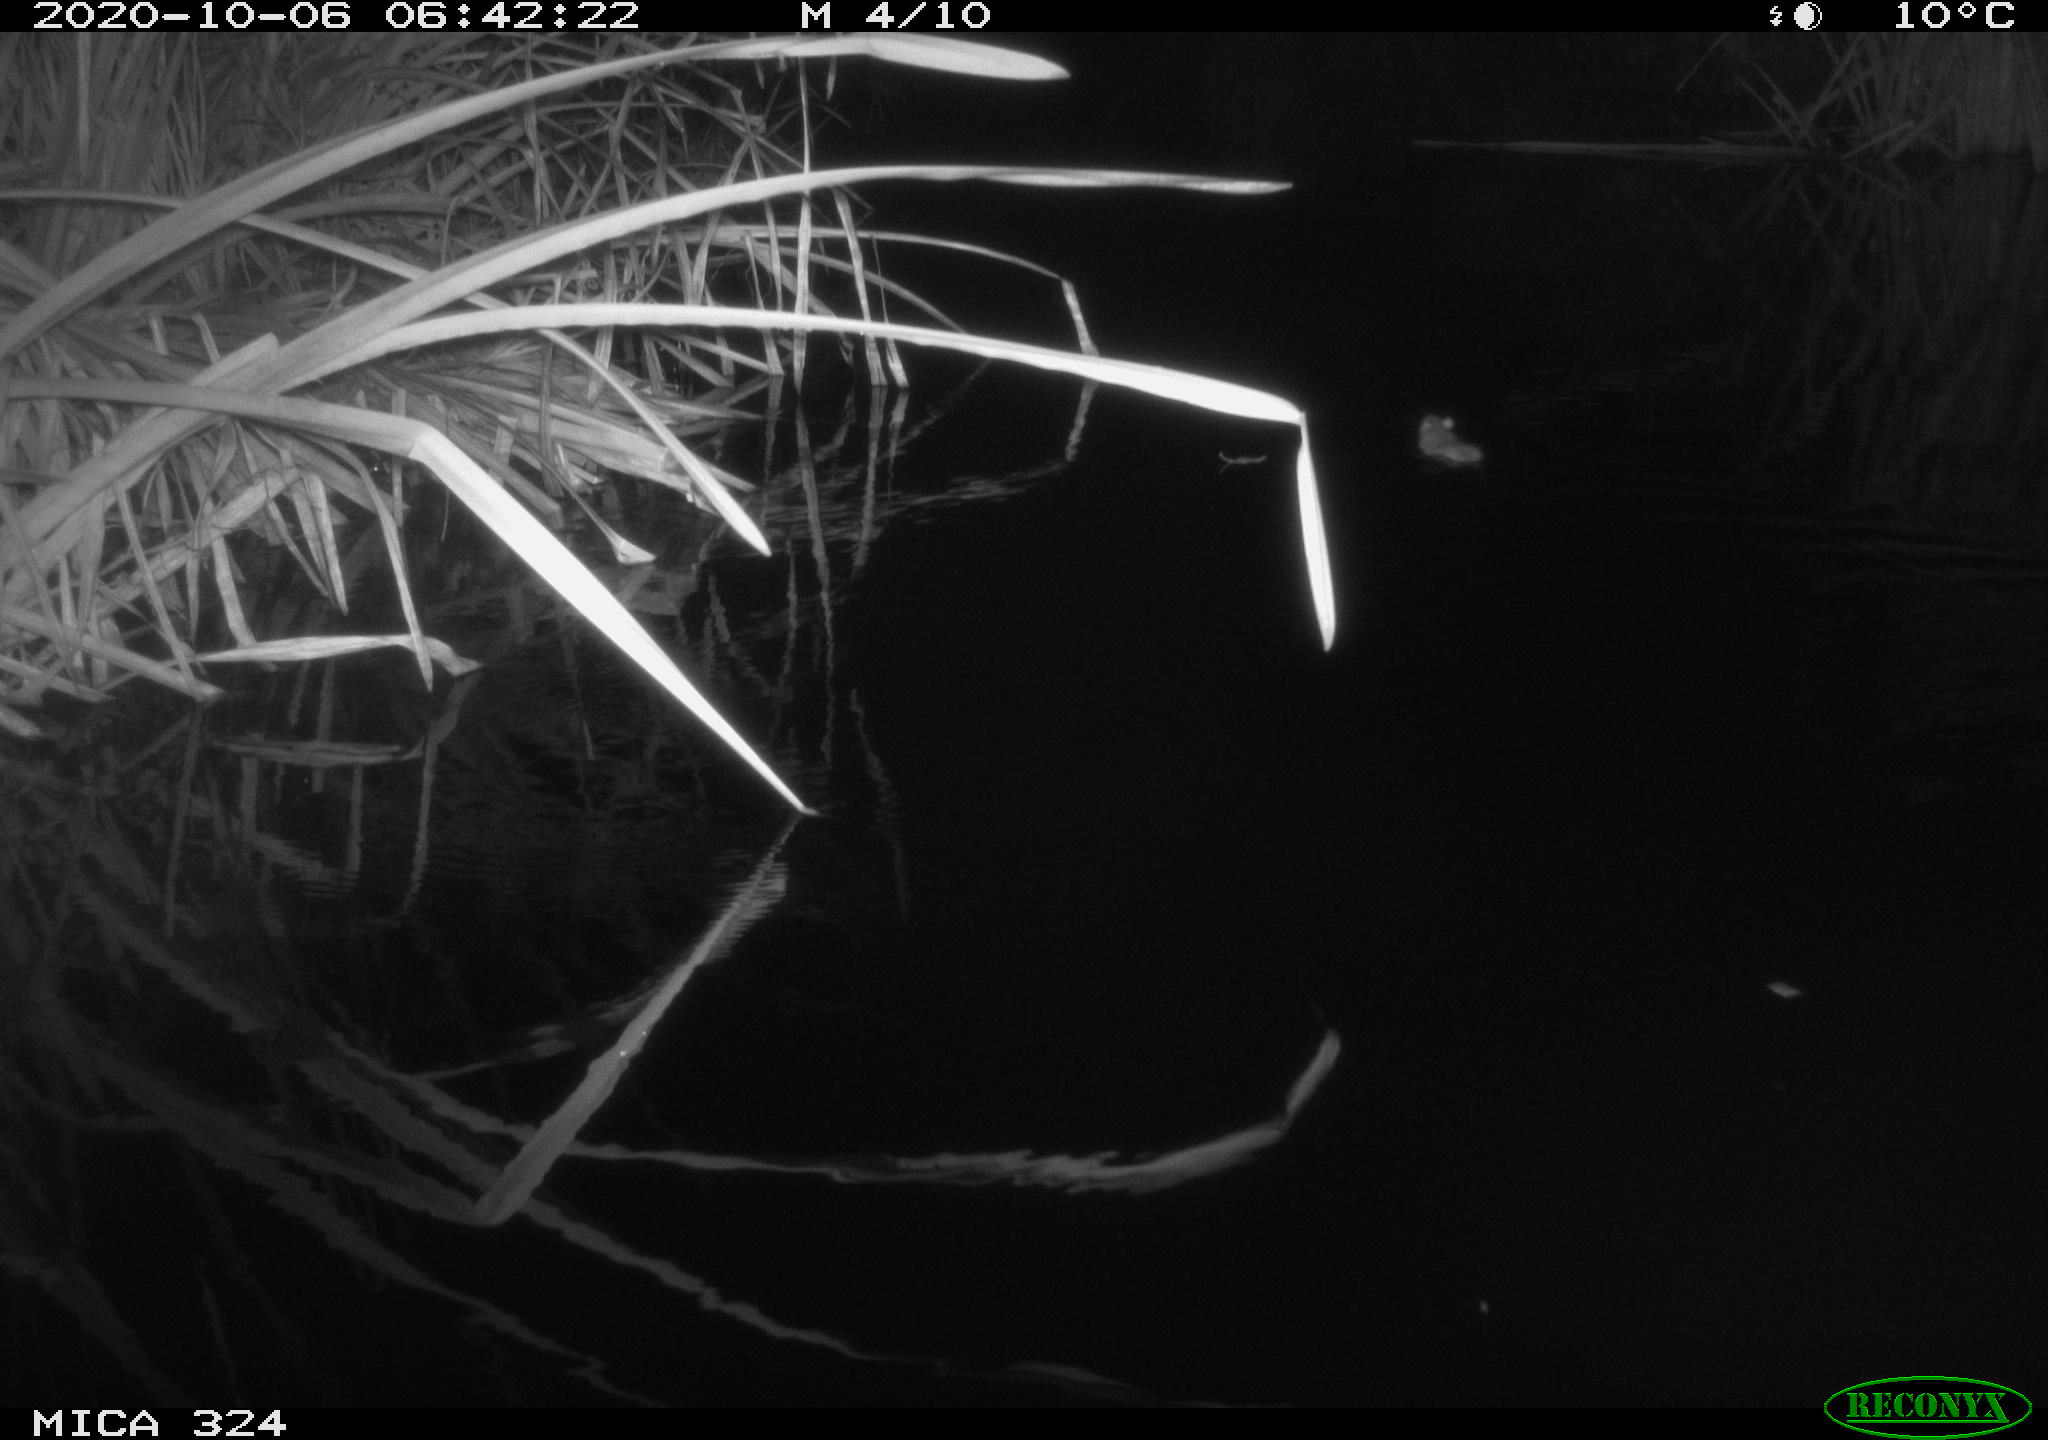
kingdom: Animalia
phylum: Chordata
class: Mammalia
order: Rodentia
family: Muridae
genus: Rattus
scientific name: Rattus norvegicus
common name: Brown rat
